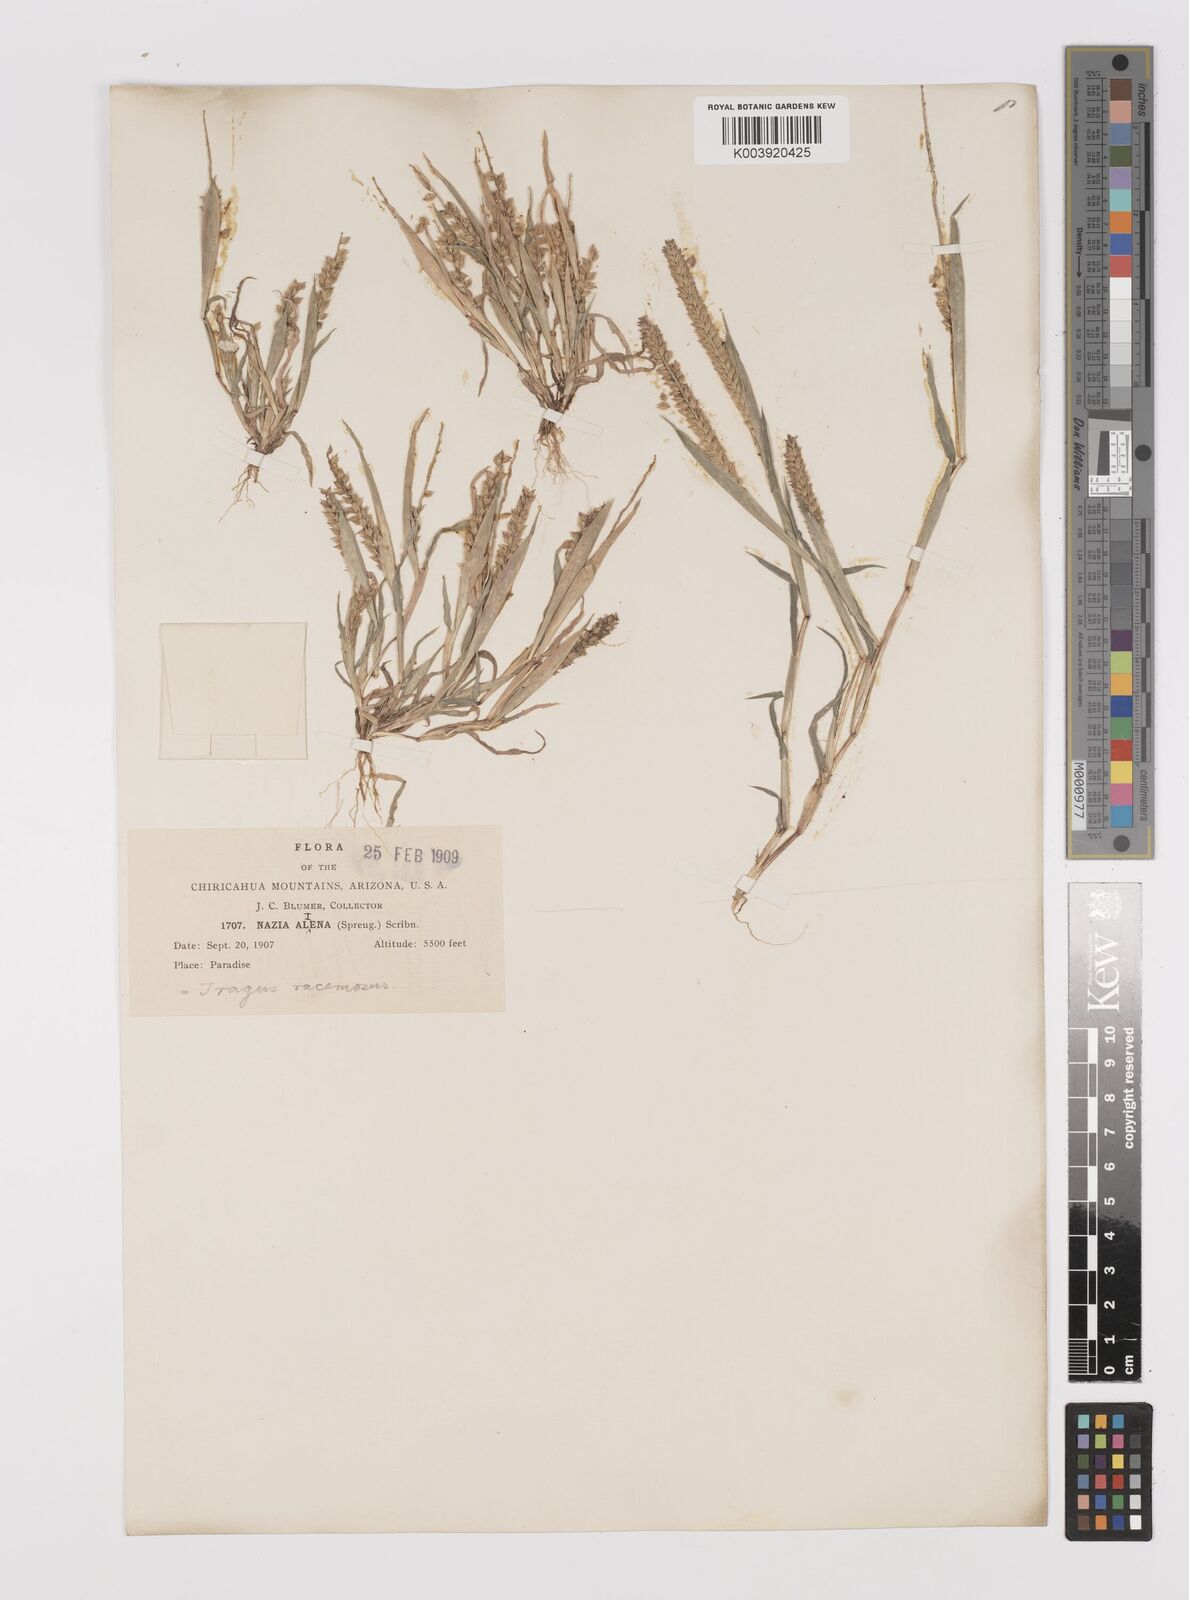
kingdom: Plantae
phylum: Tracheophyta
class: Liliopsida
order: Poales
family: Poaceae
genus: Tragus
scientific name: Tragus berteronianus
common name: African bur-grass
